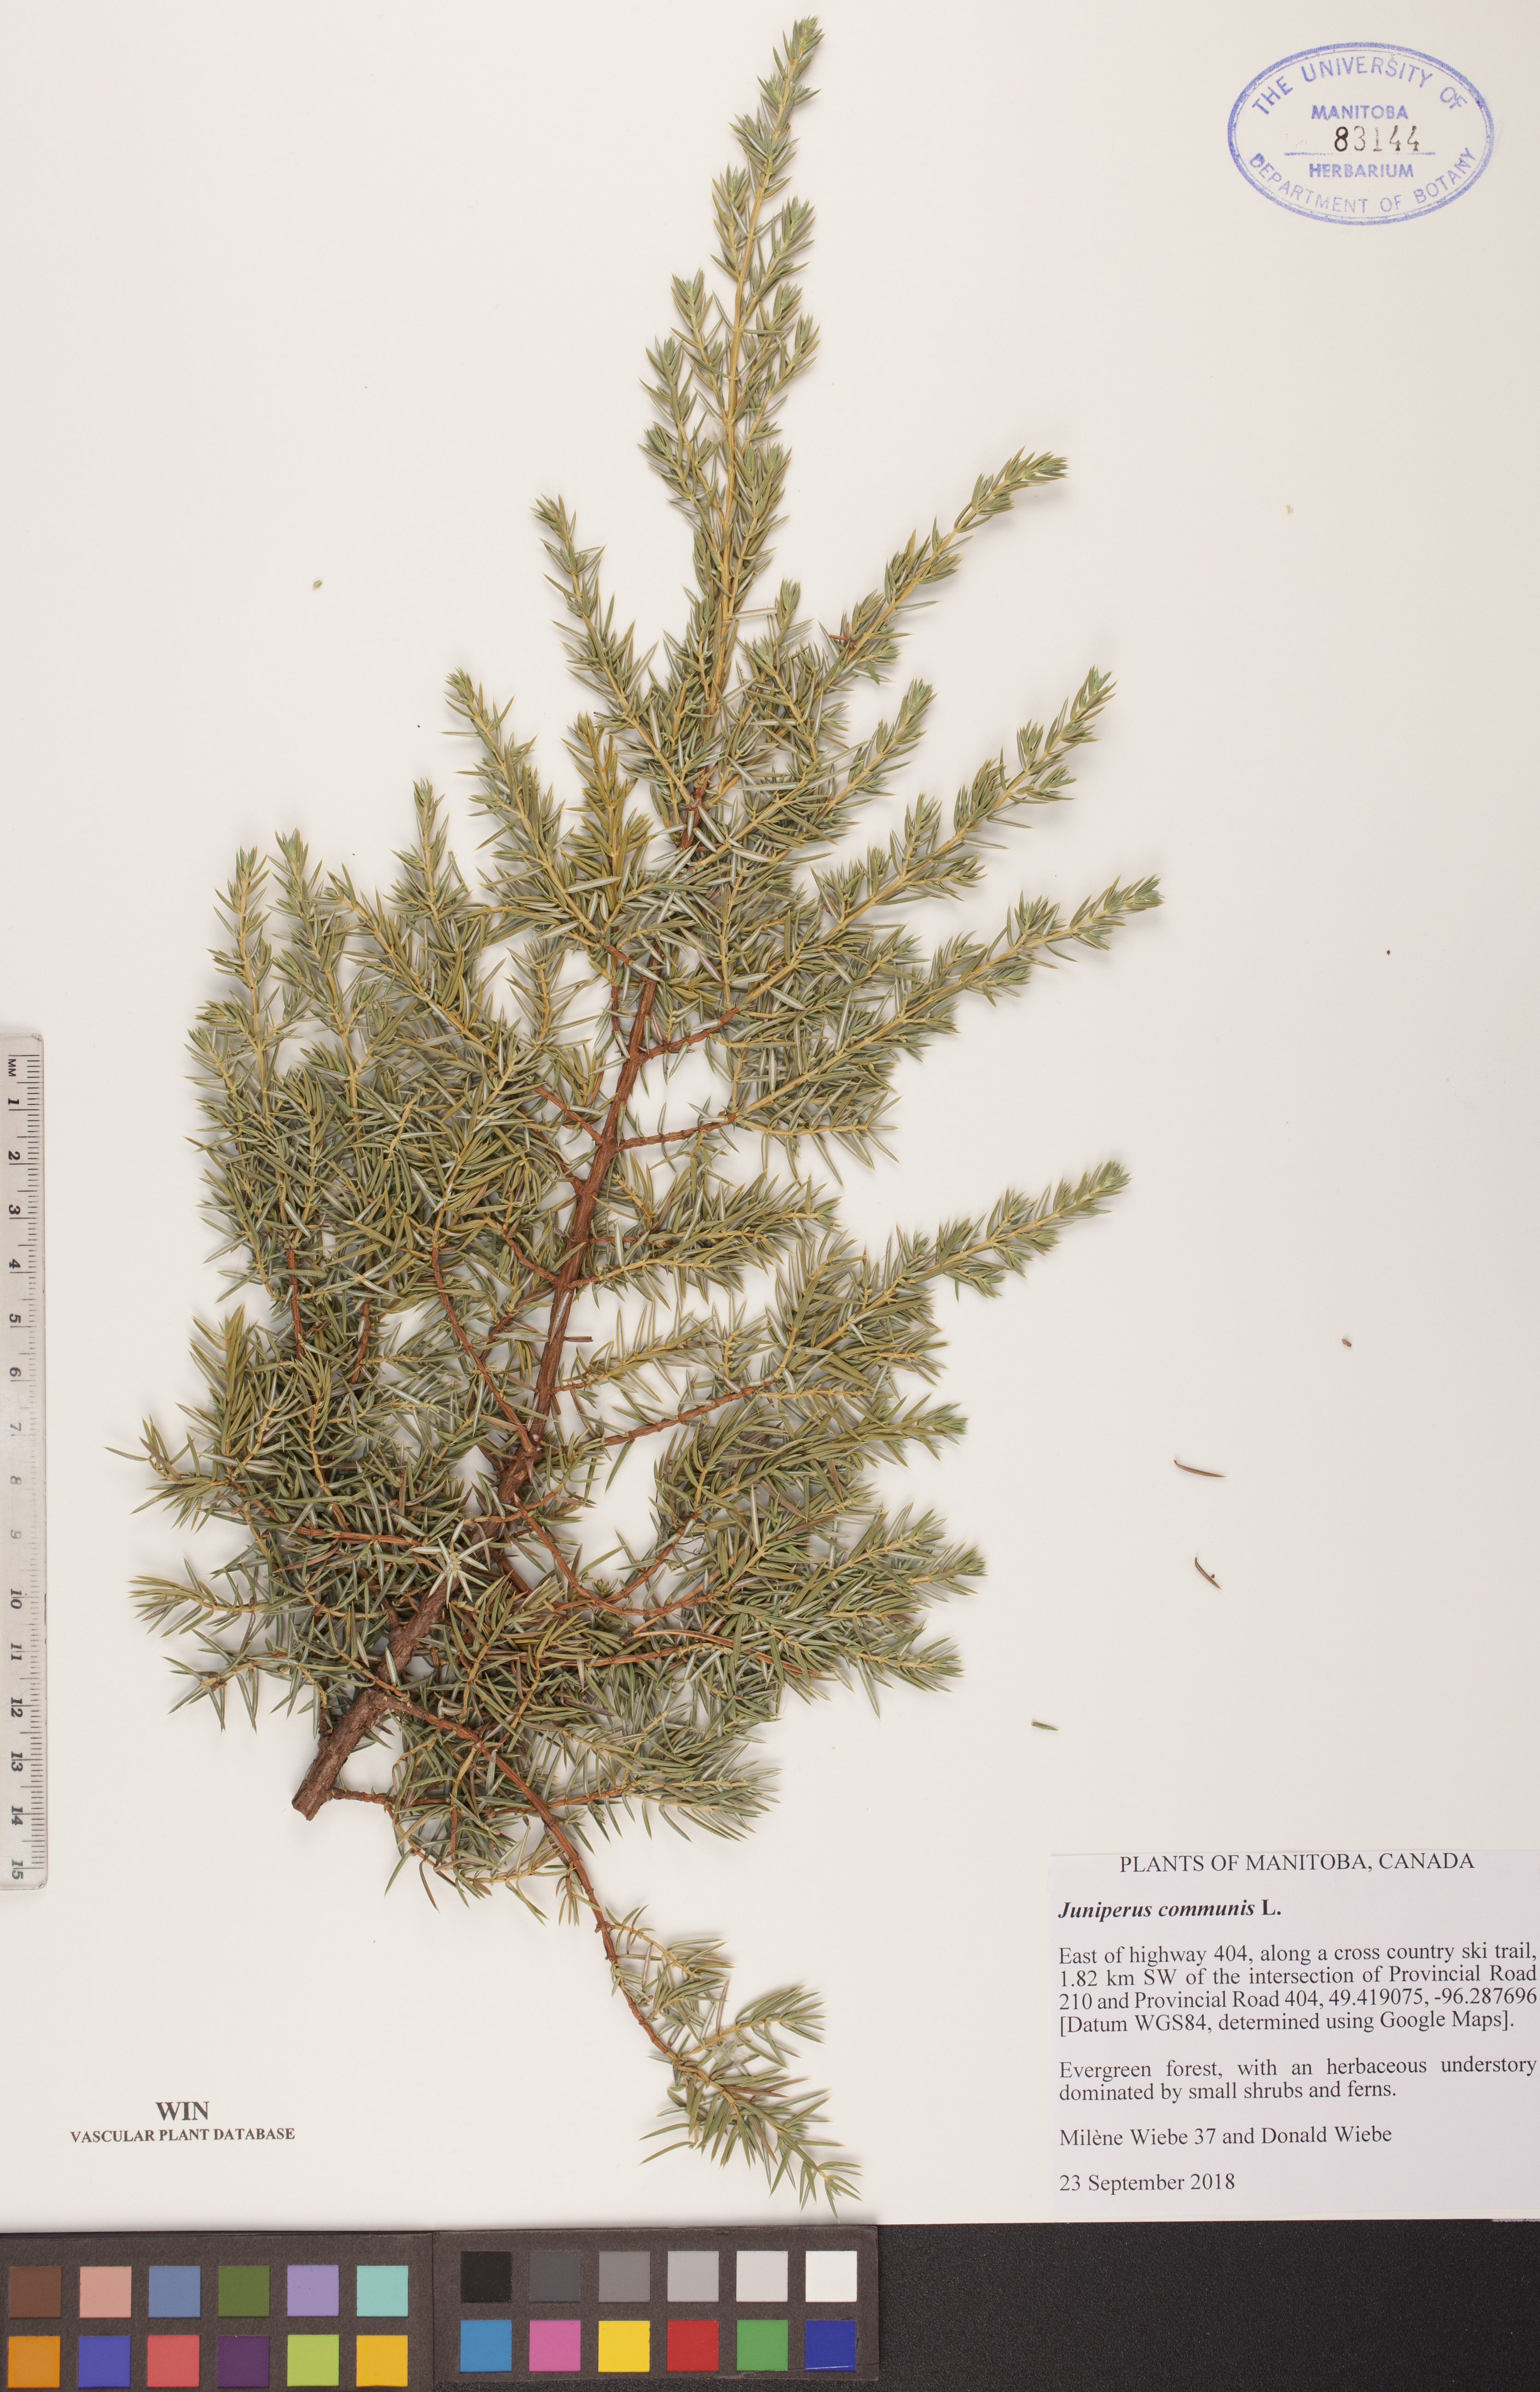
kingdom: Plantae
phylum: Tracheophyta
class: Pinopsida
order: Pinales
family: Cupressaceae
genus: Juniperus
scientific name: Juniperus communis
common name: Common juniper
